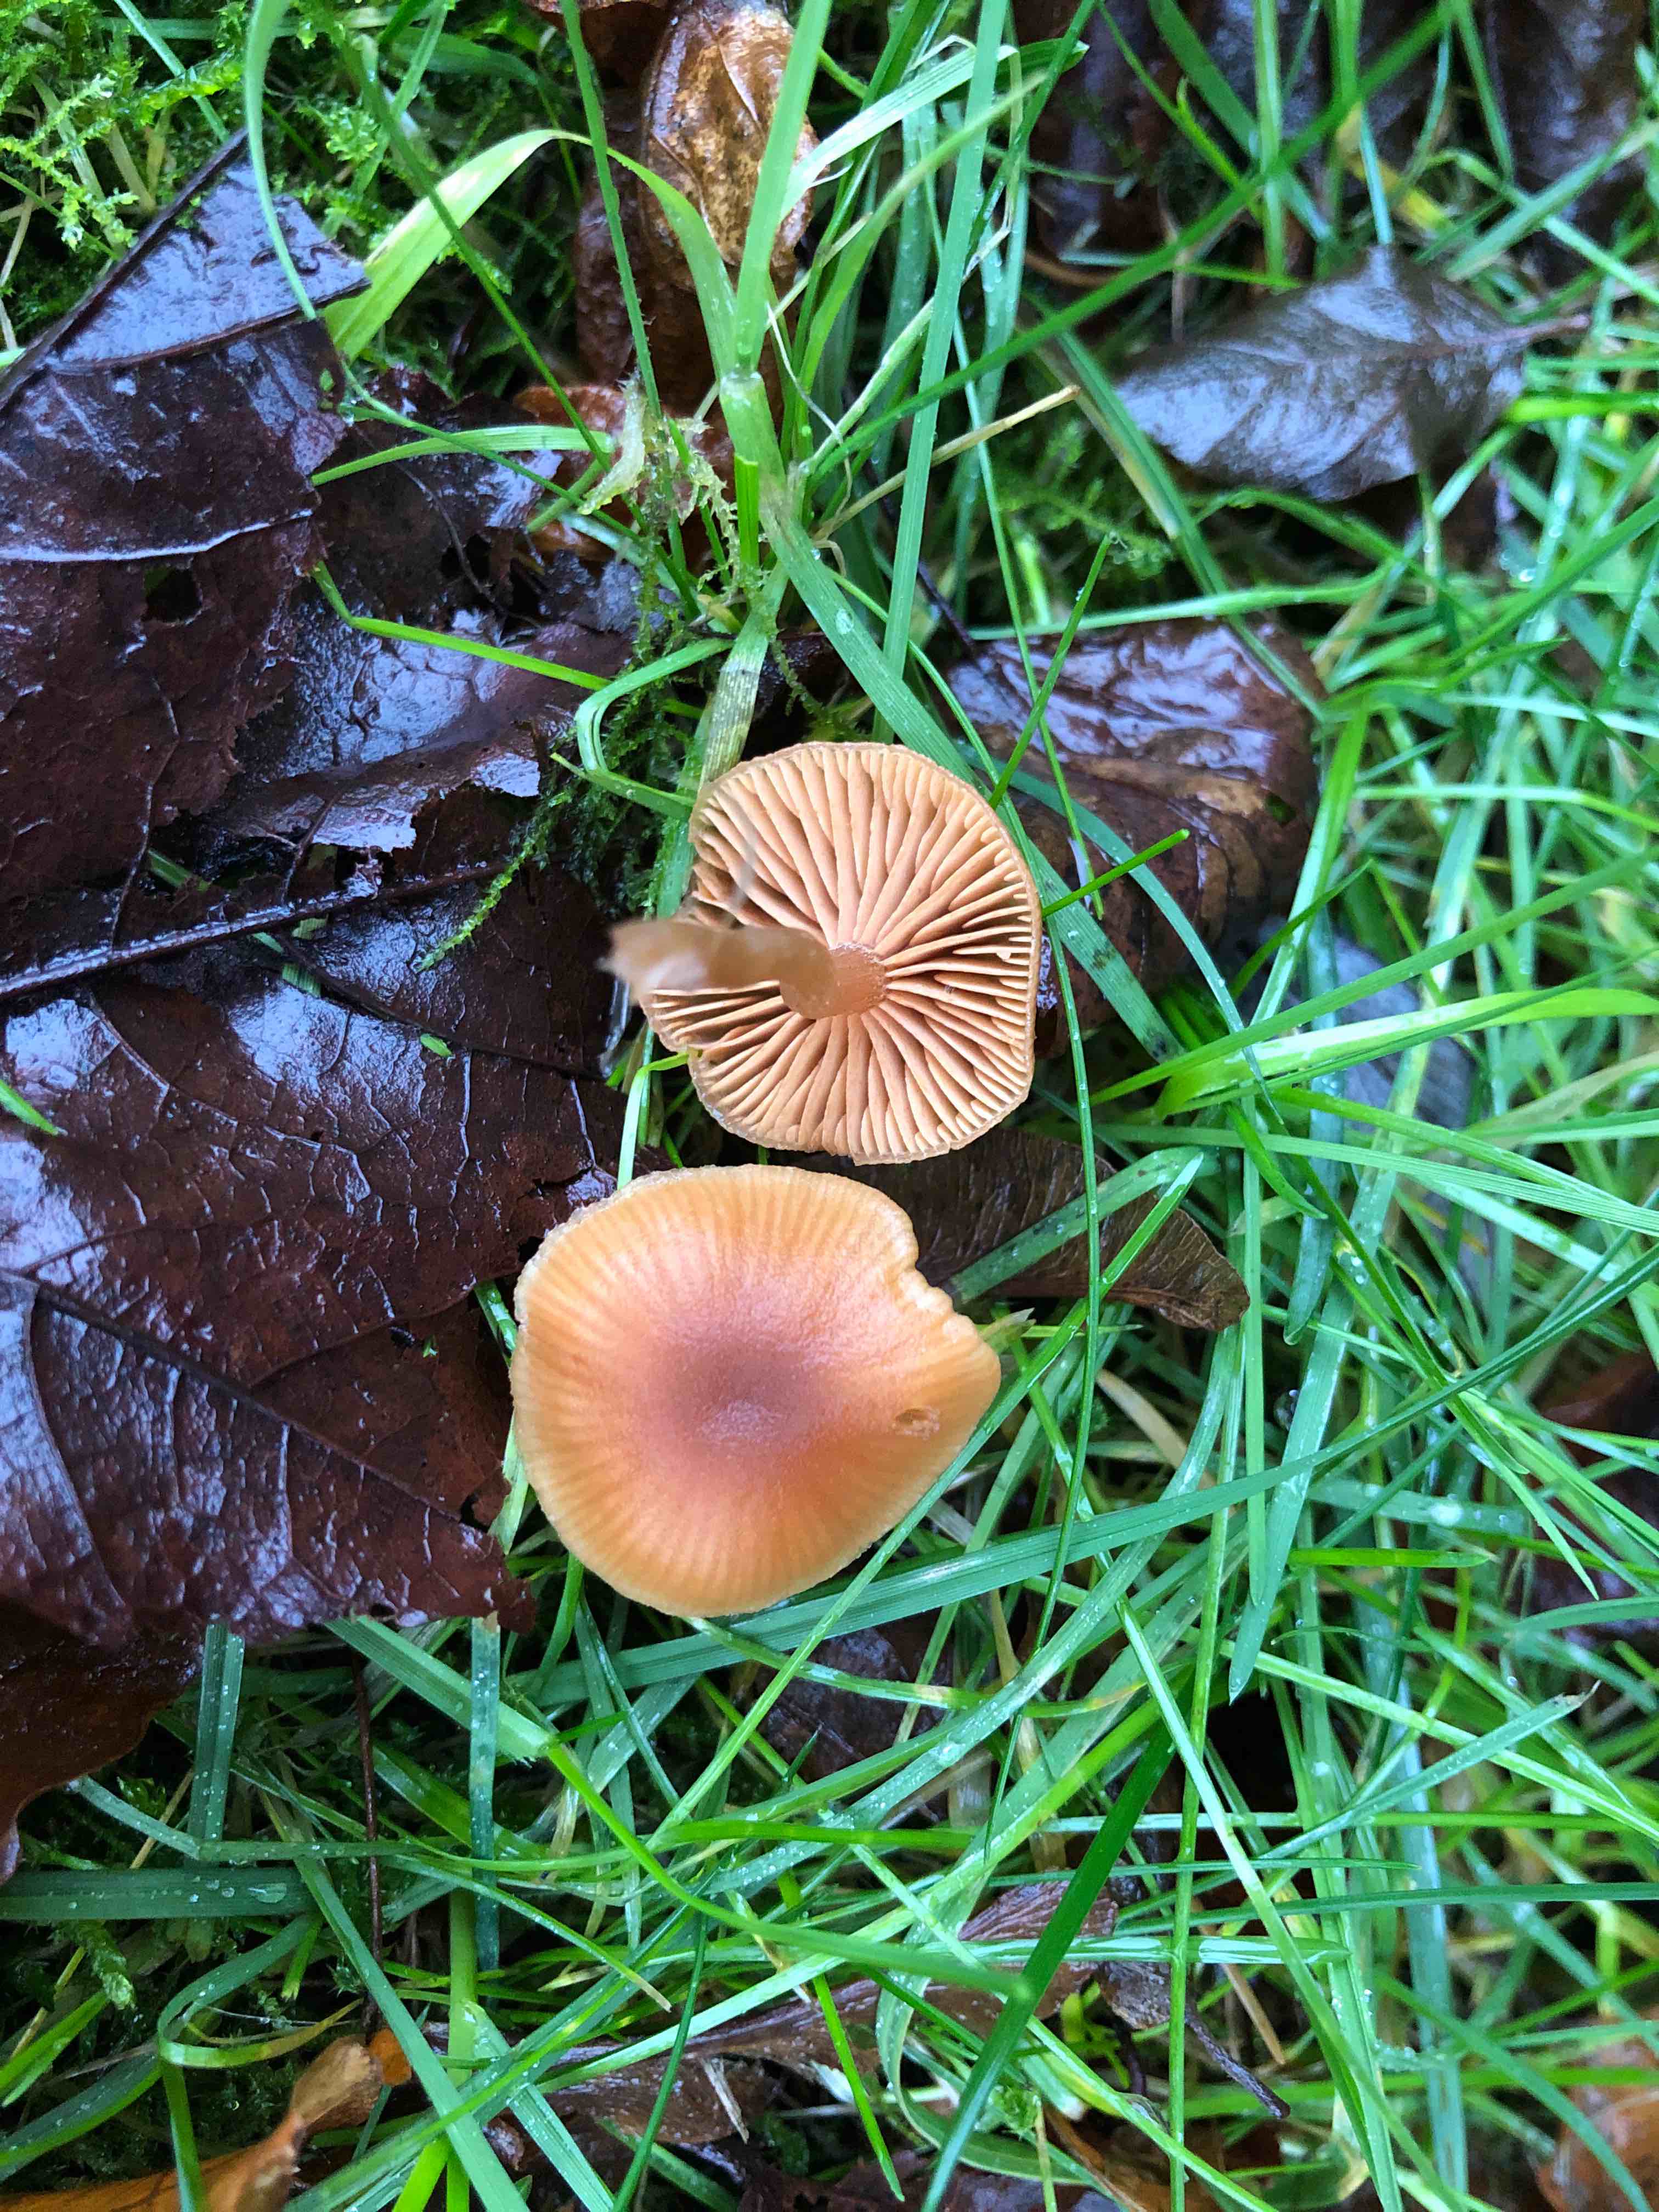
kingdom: Fungi
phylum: Basidiomycota
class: Agaricomycetes
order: Agaricales
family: Tubariaceae
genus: Tubaria
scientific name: Tubaria furfuracea
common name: kliddet fnughat
